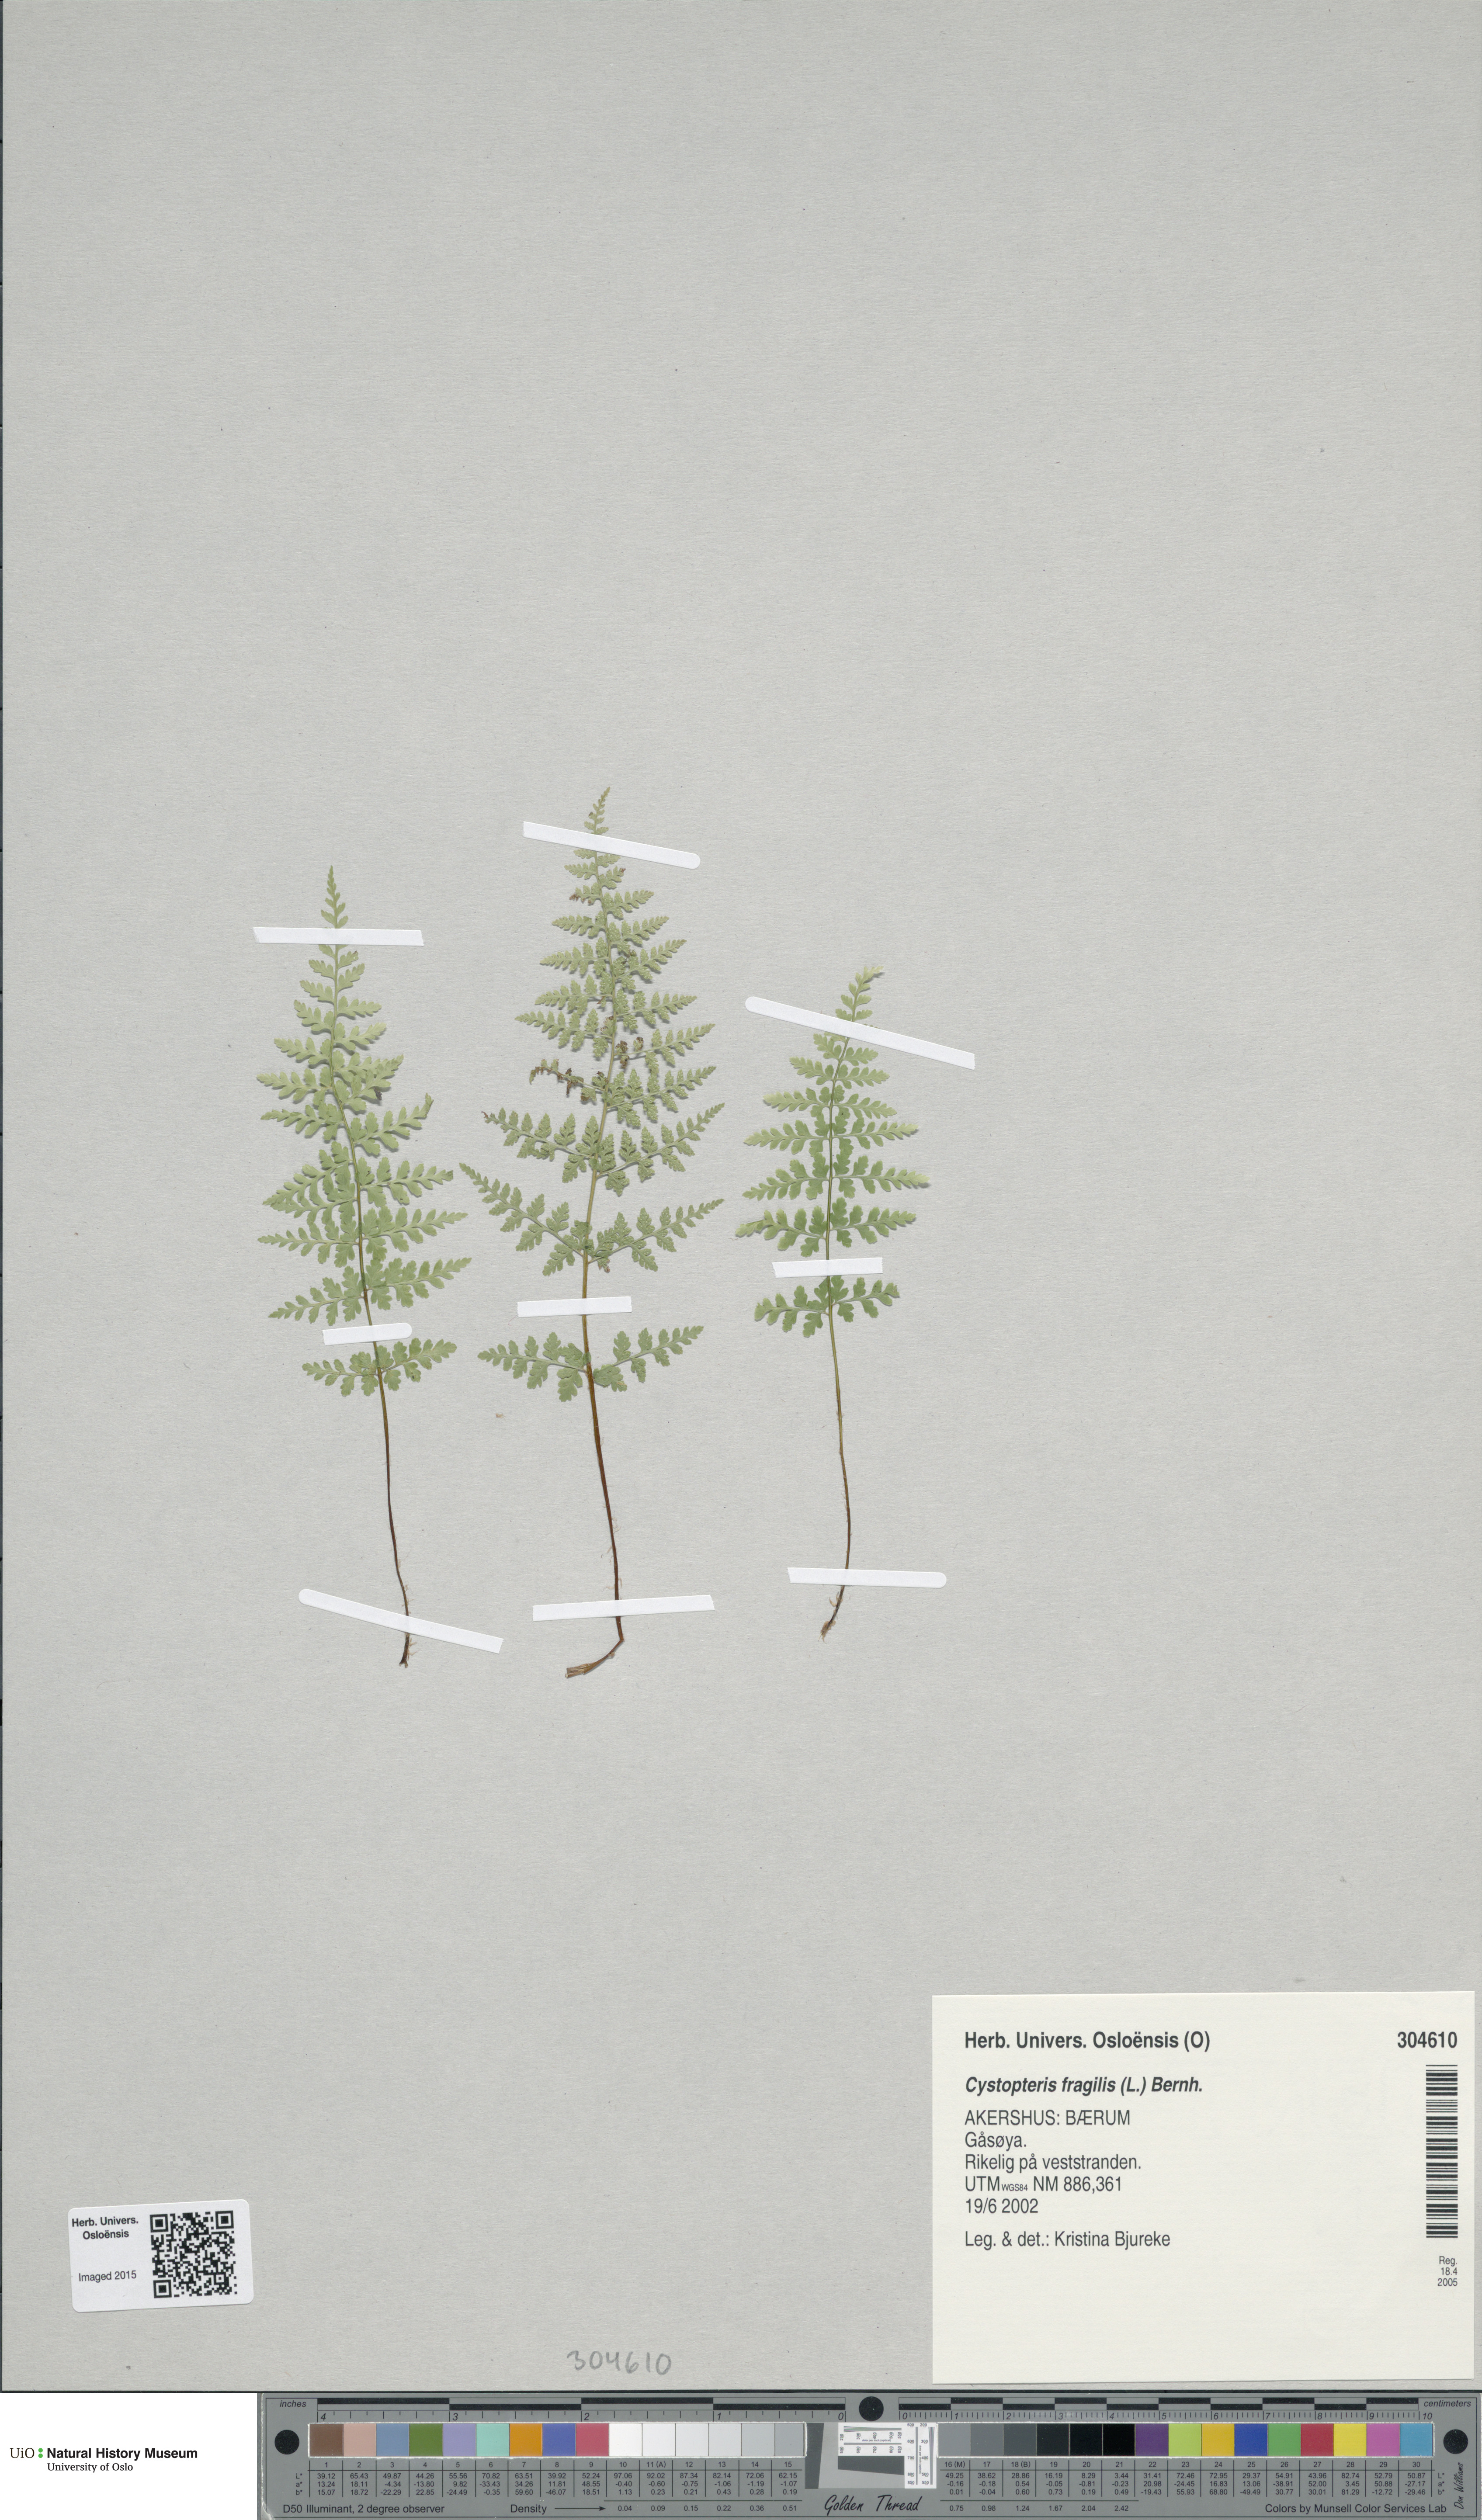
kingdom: Plantae
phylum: Tracheophyta
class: Polypodiopsida
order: Polypodiales
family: Cystopteridaceae
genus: Cystopteris
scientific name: Cystopteris fragilis
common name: Brittle bladder fern
